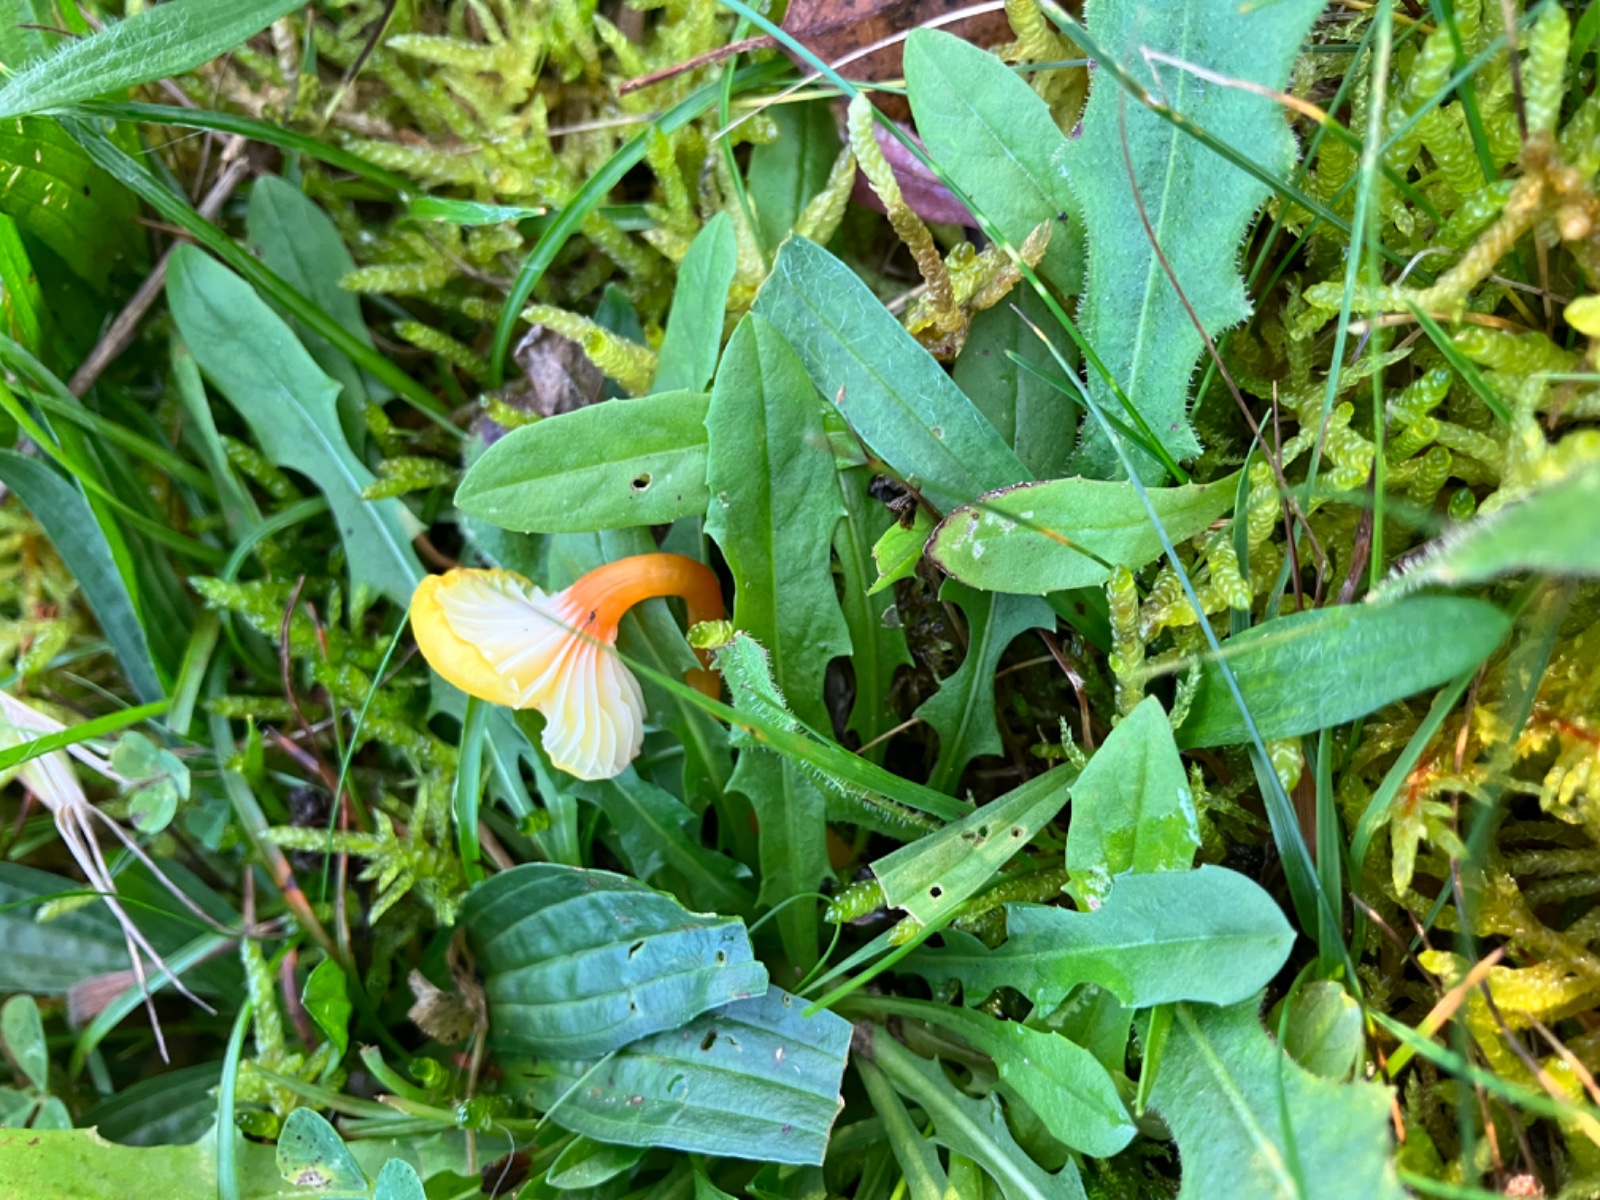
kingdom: Fungi
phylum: Basidiomycota
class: Agaricomycetes
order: Agaricales
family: Hygrophoraceae
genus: Hygrocybe
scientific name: Hygrocybe insipida
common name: liden vokshat
